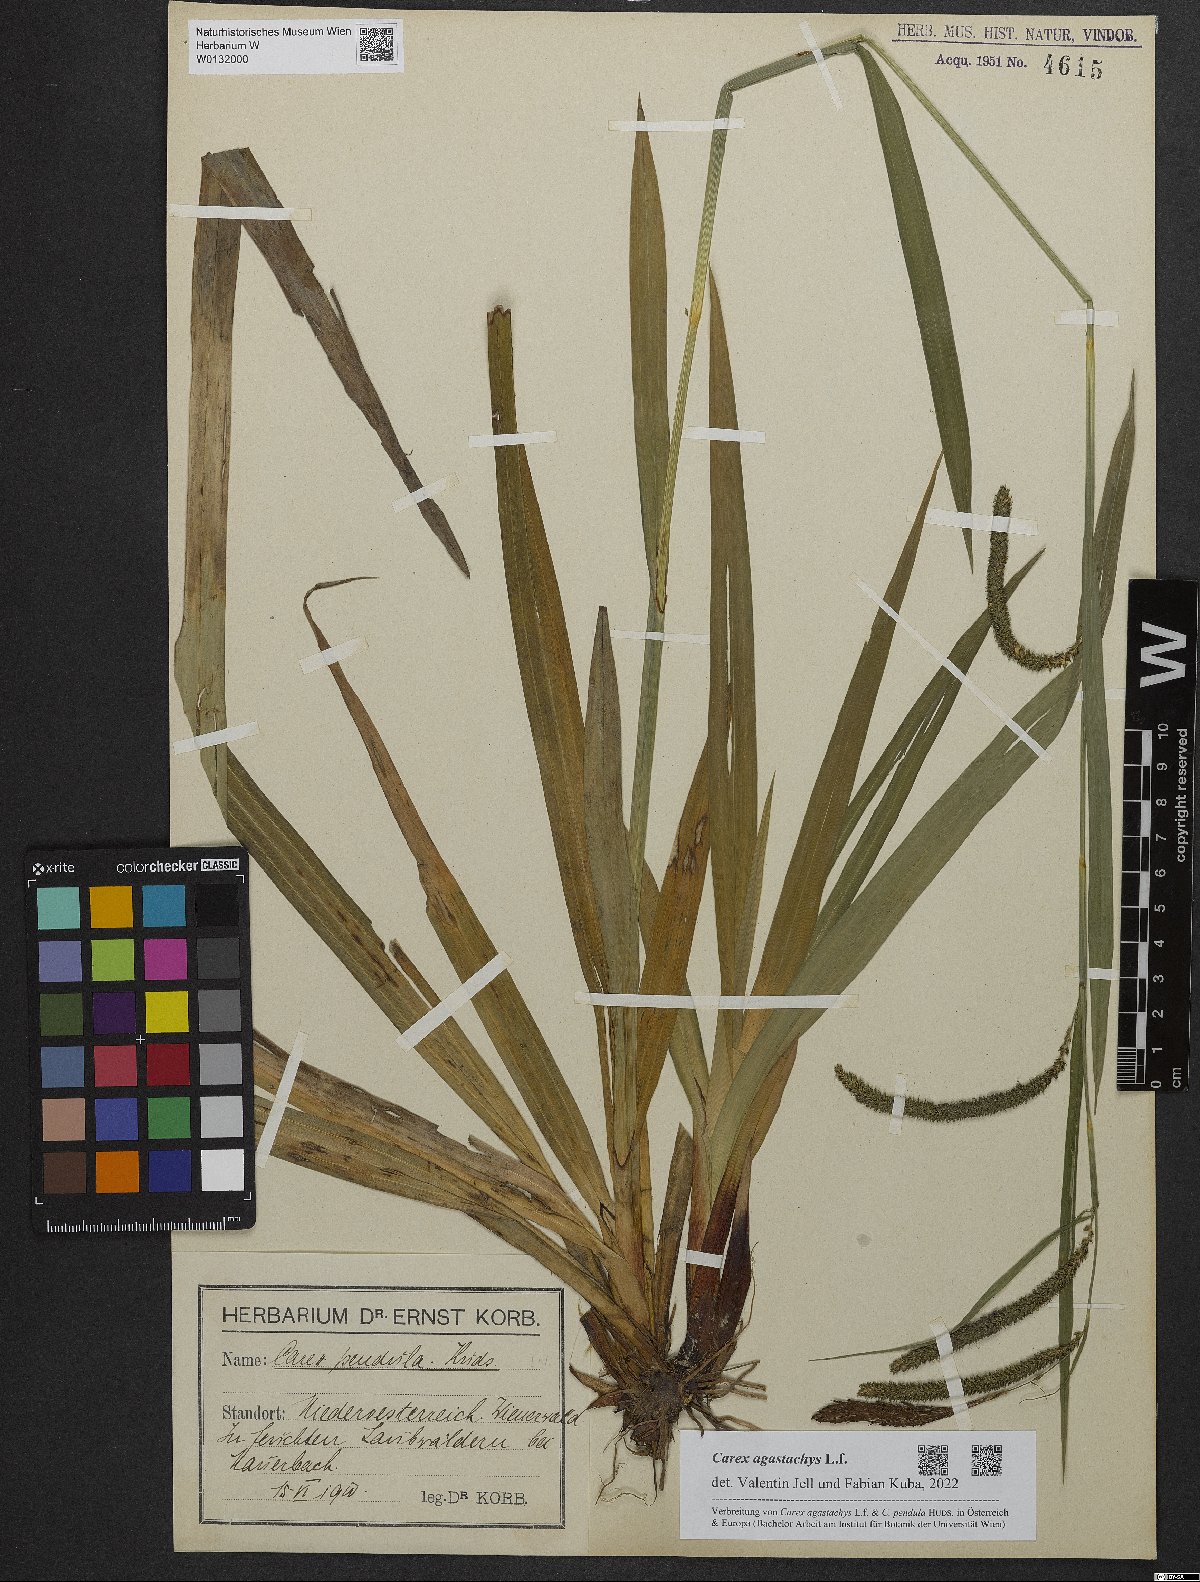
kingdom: Plantae
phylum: Tracheophyta
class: Liliopsida
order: Poales
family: Cyperaceae
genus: Carex
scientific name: Carex agastachys
